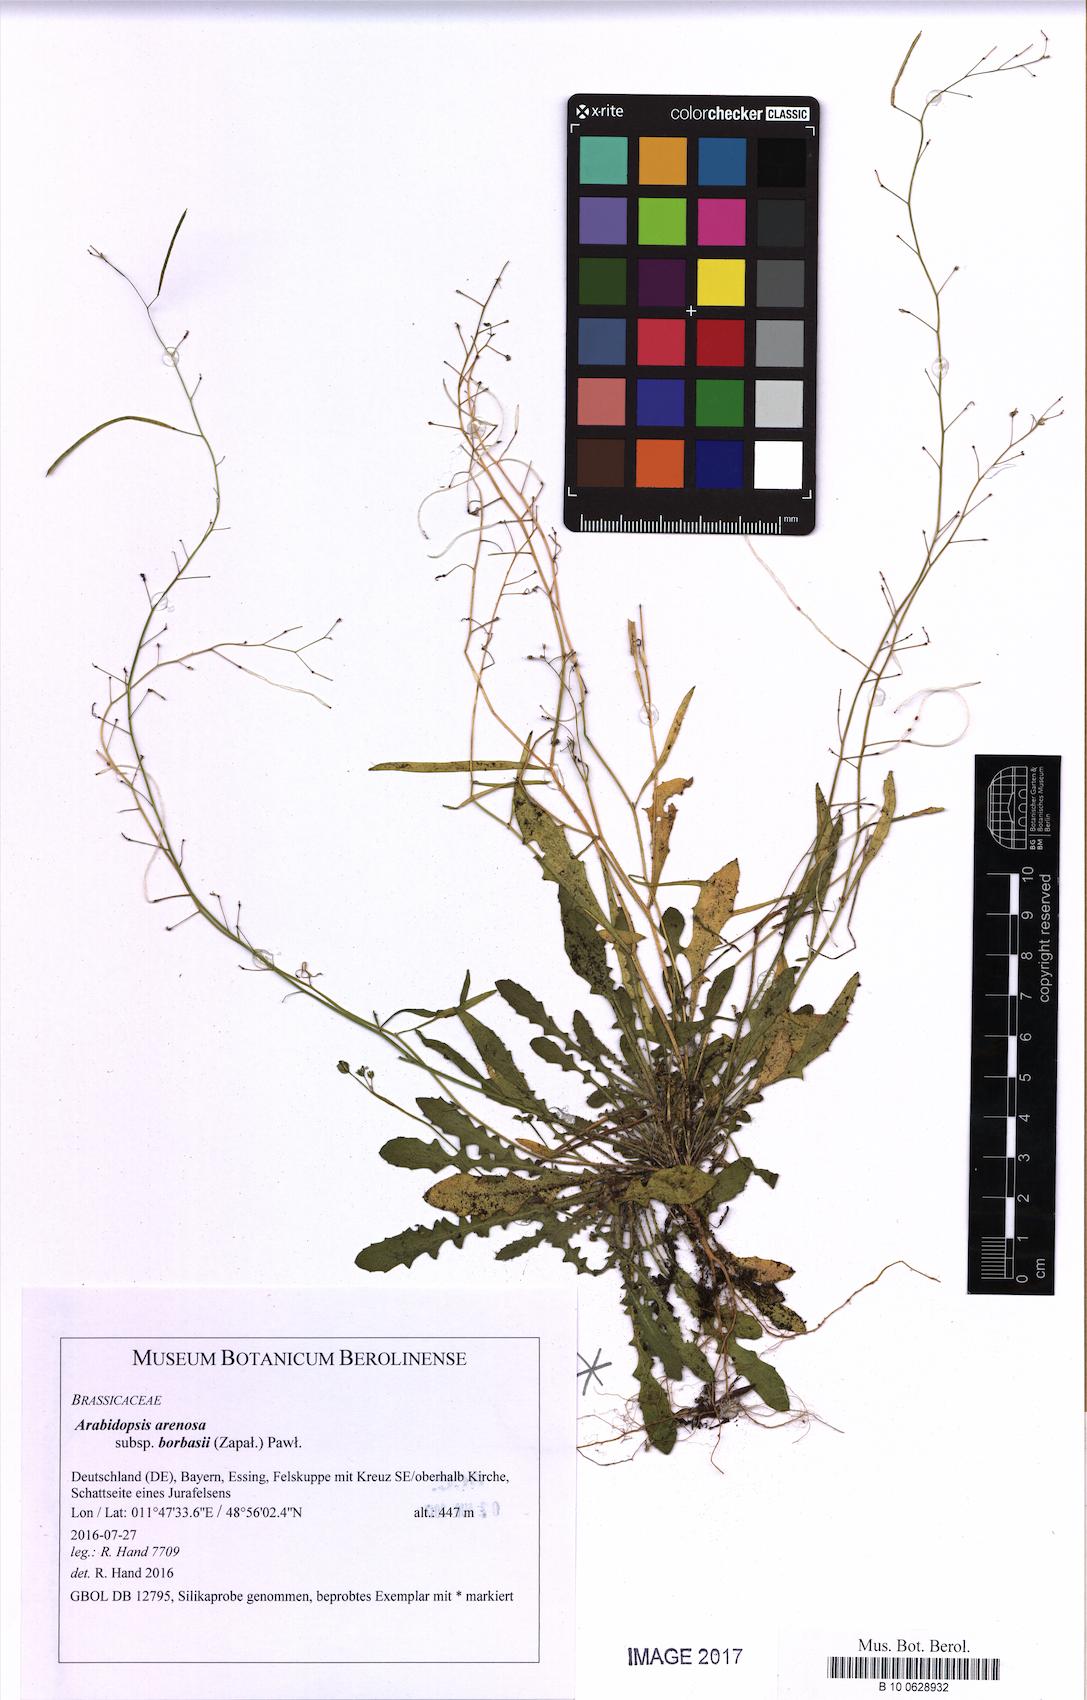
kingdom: Plantae
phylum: Tracheophyta
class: Magnoliopsida
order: Brassicales
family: Brassicaceae
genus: Arabidopsis
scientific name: Arabidopsis arenosa
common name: Sand rock-cress
